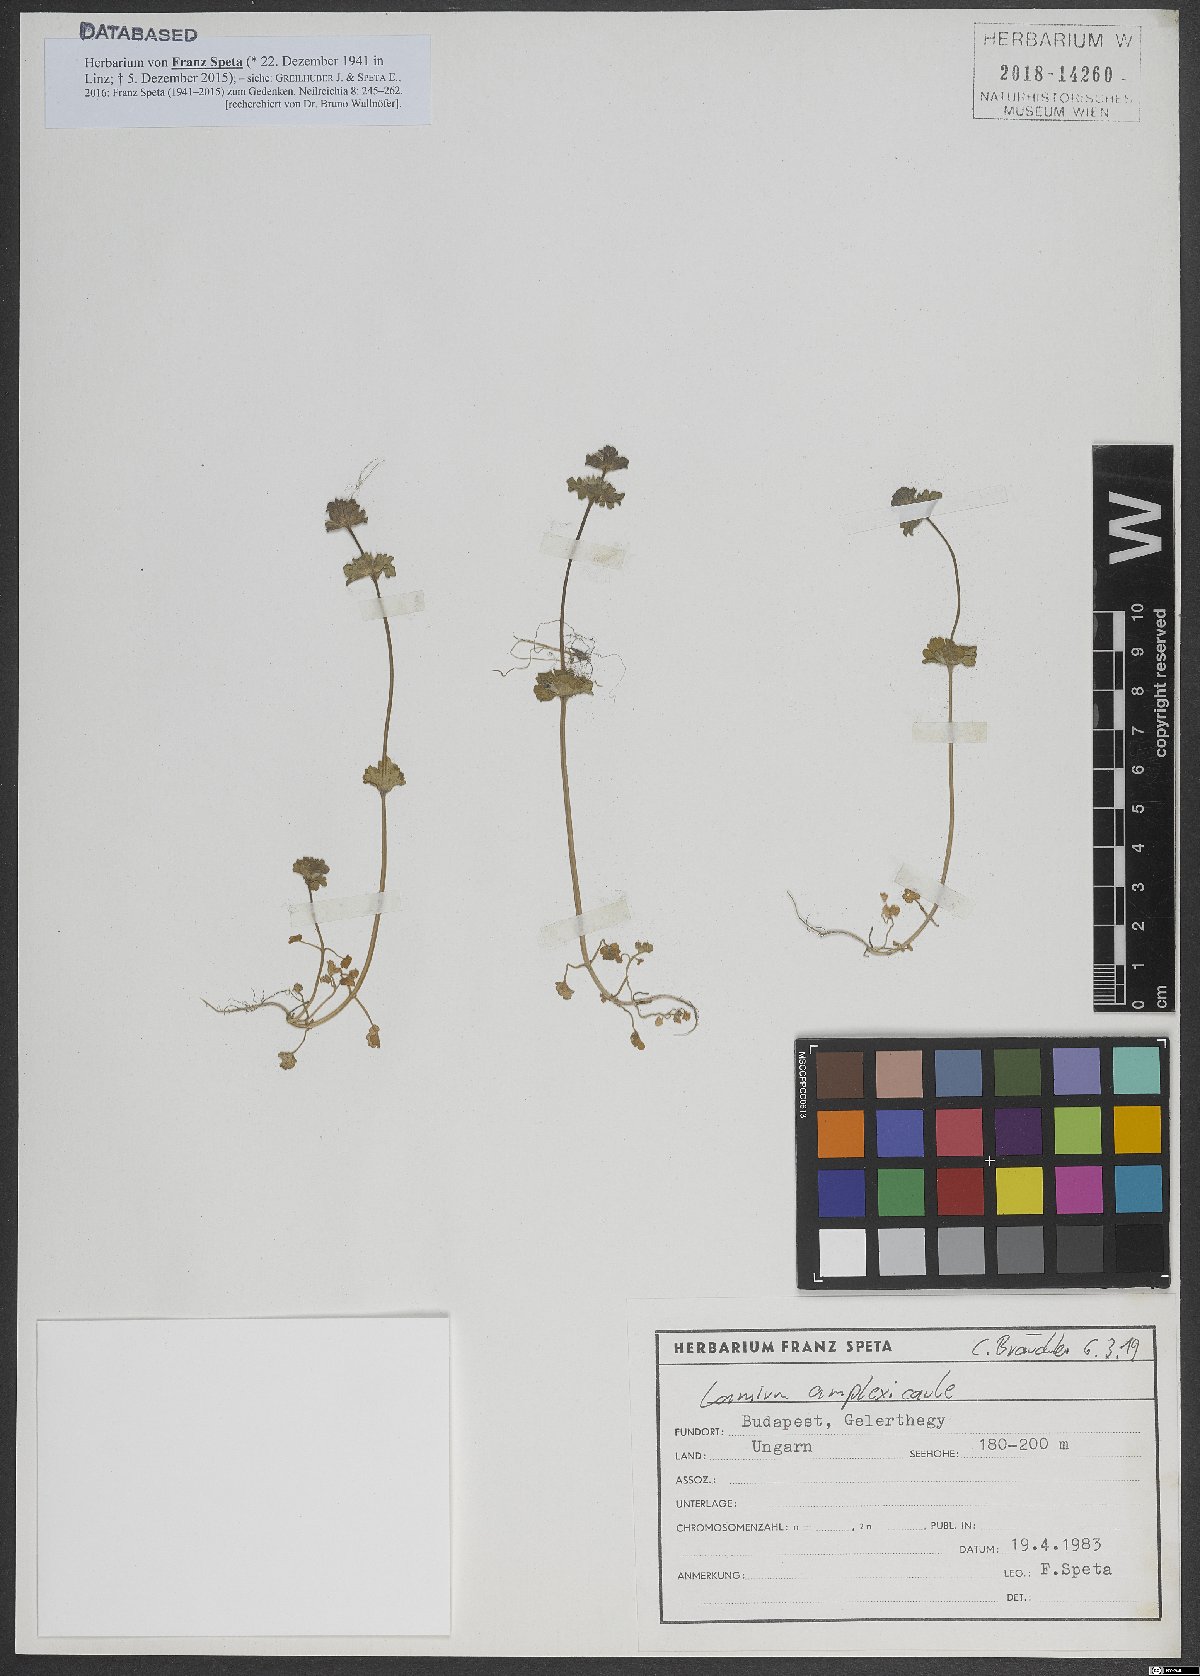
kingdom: Plantae
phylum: Tracheophyta
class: Magnoliopsida
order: Lamiales
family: Lamiaceae
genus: Lamium
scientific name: Lamium amplexicaule
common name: Henbit dead-nettle
